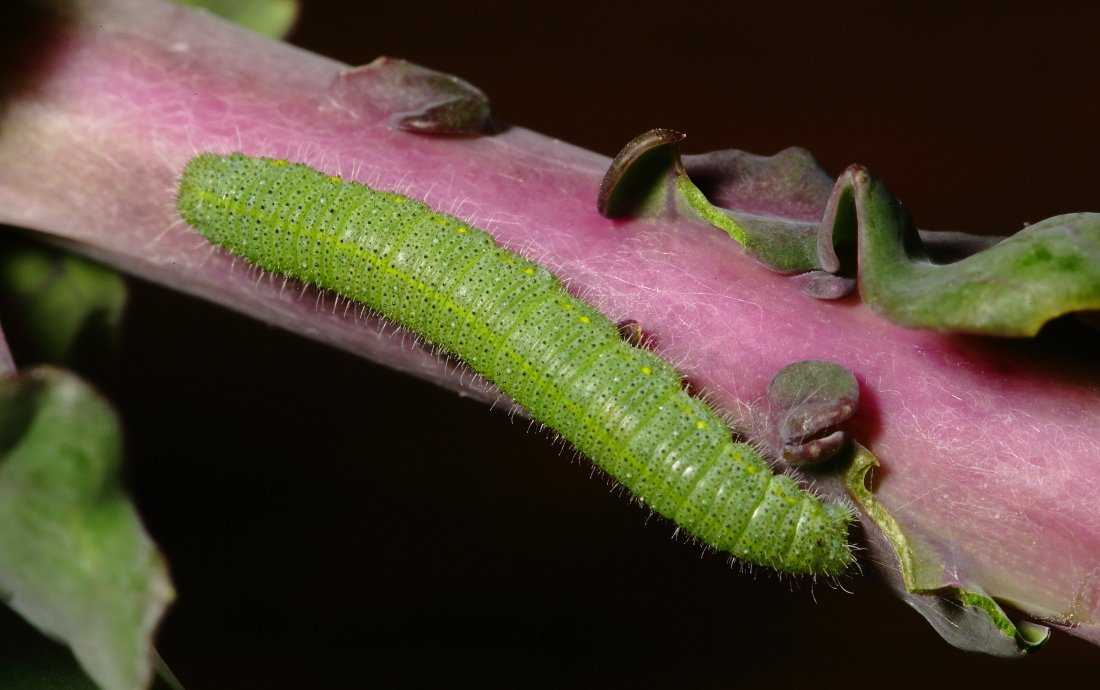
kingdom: Animalia
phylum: Arthropoda
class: Insecta
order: Lepidoptera
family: Pieridae
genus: Pieris
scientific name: Pieris rapae
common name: Cabbage White
